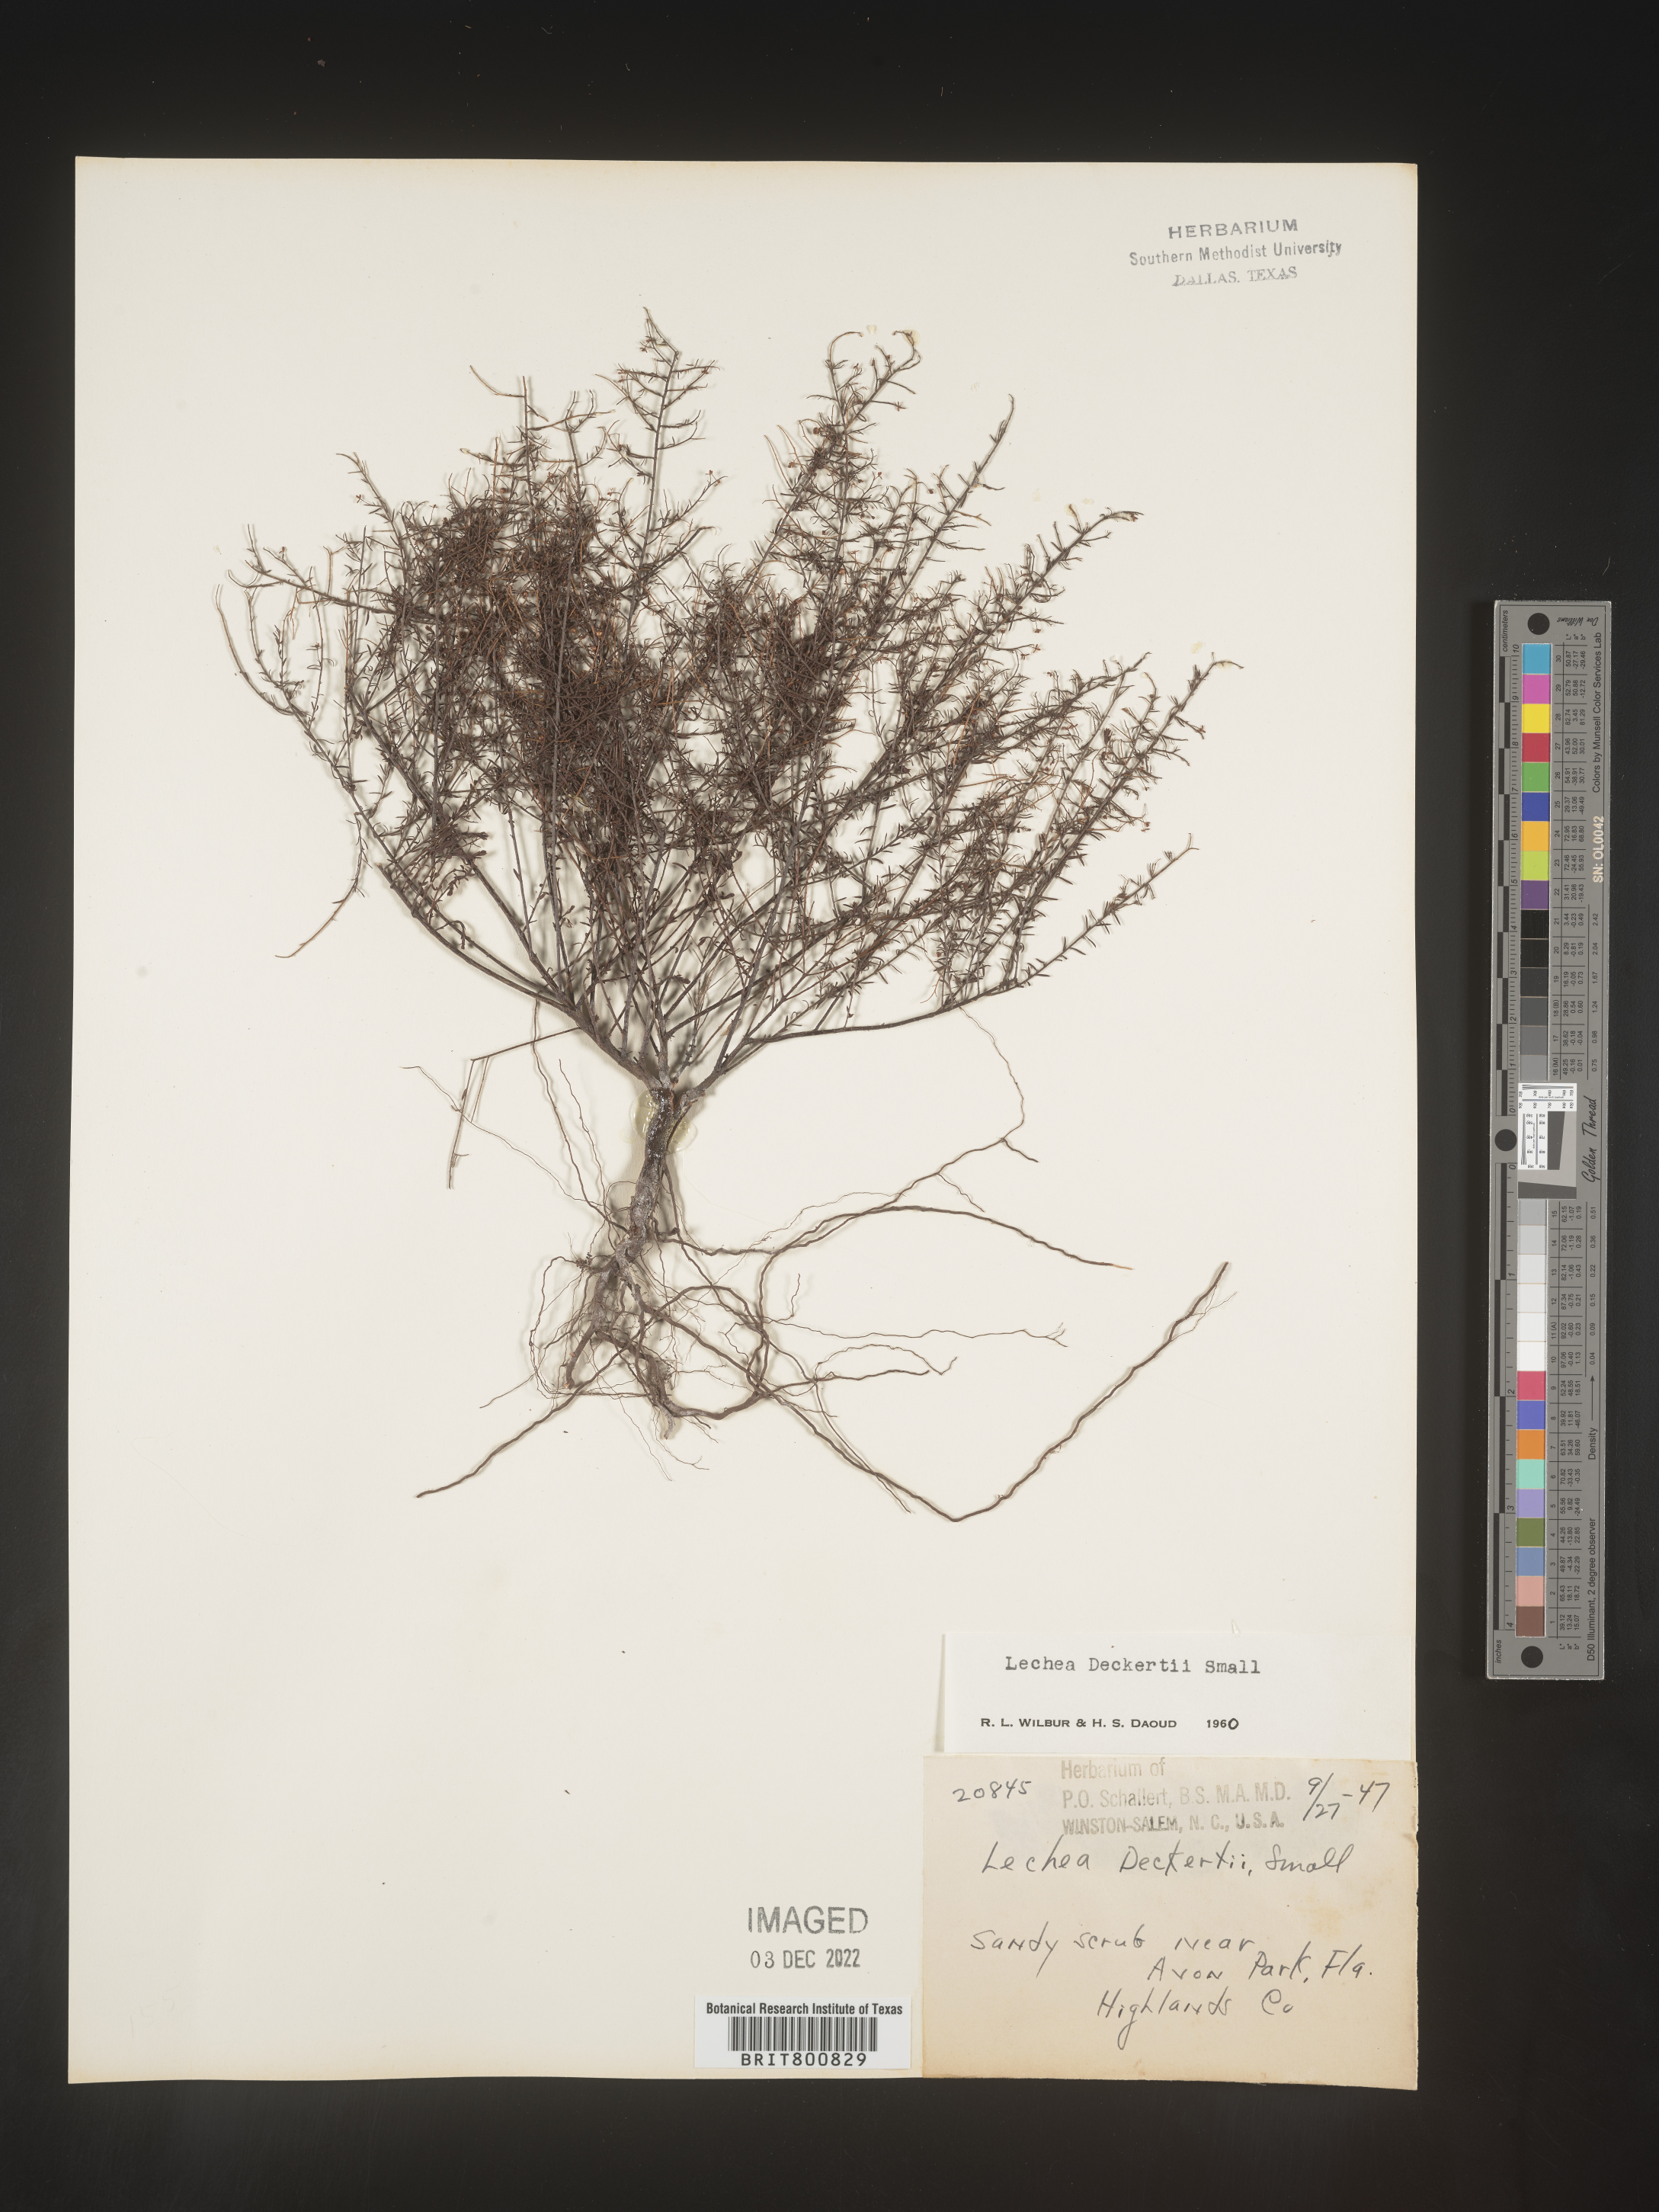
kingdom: Plantae
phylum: Tracheophyta
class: Magnoliopsida
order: Malvales
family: Cistaceae
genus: Lechea
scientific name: Lechea
